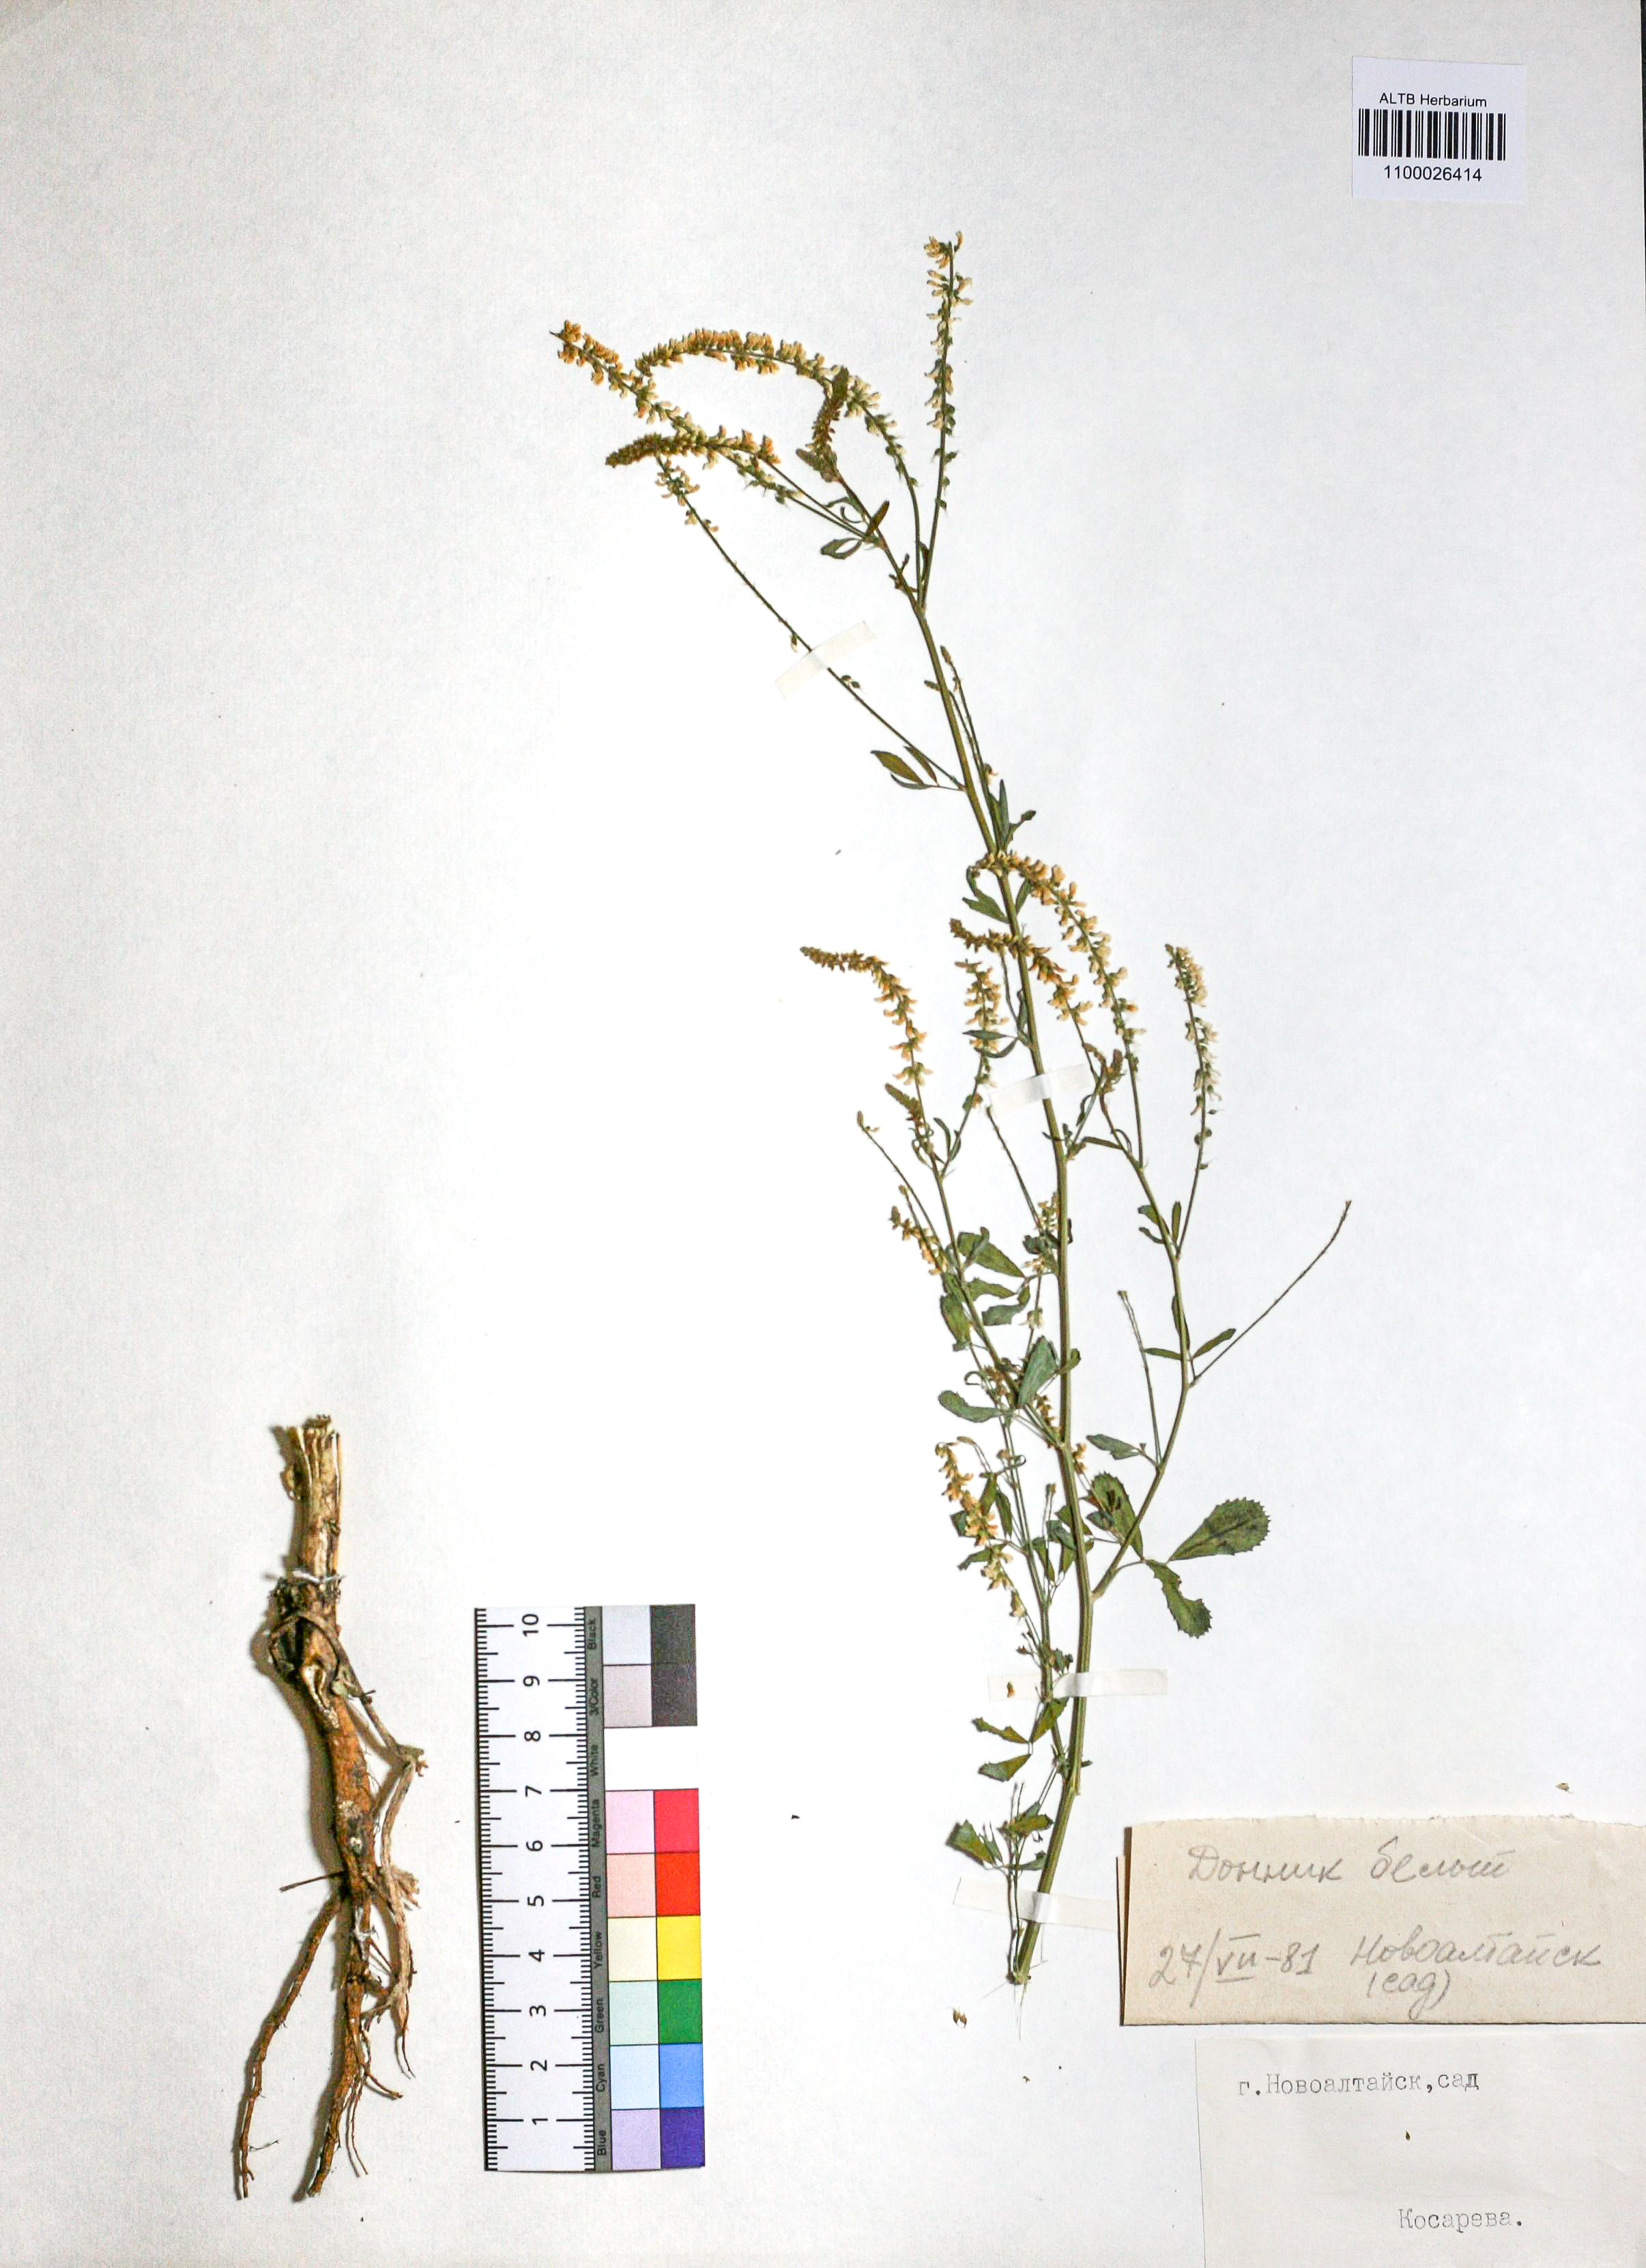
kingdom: Plantae
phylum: Tracheophyta
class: Magnoliopsida
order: Fabales
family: Fabaceae
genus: Melilotus
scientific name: Melilotus albus
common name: White melilot
